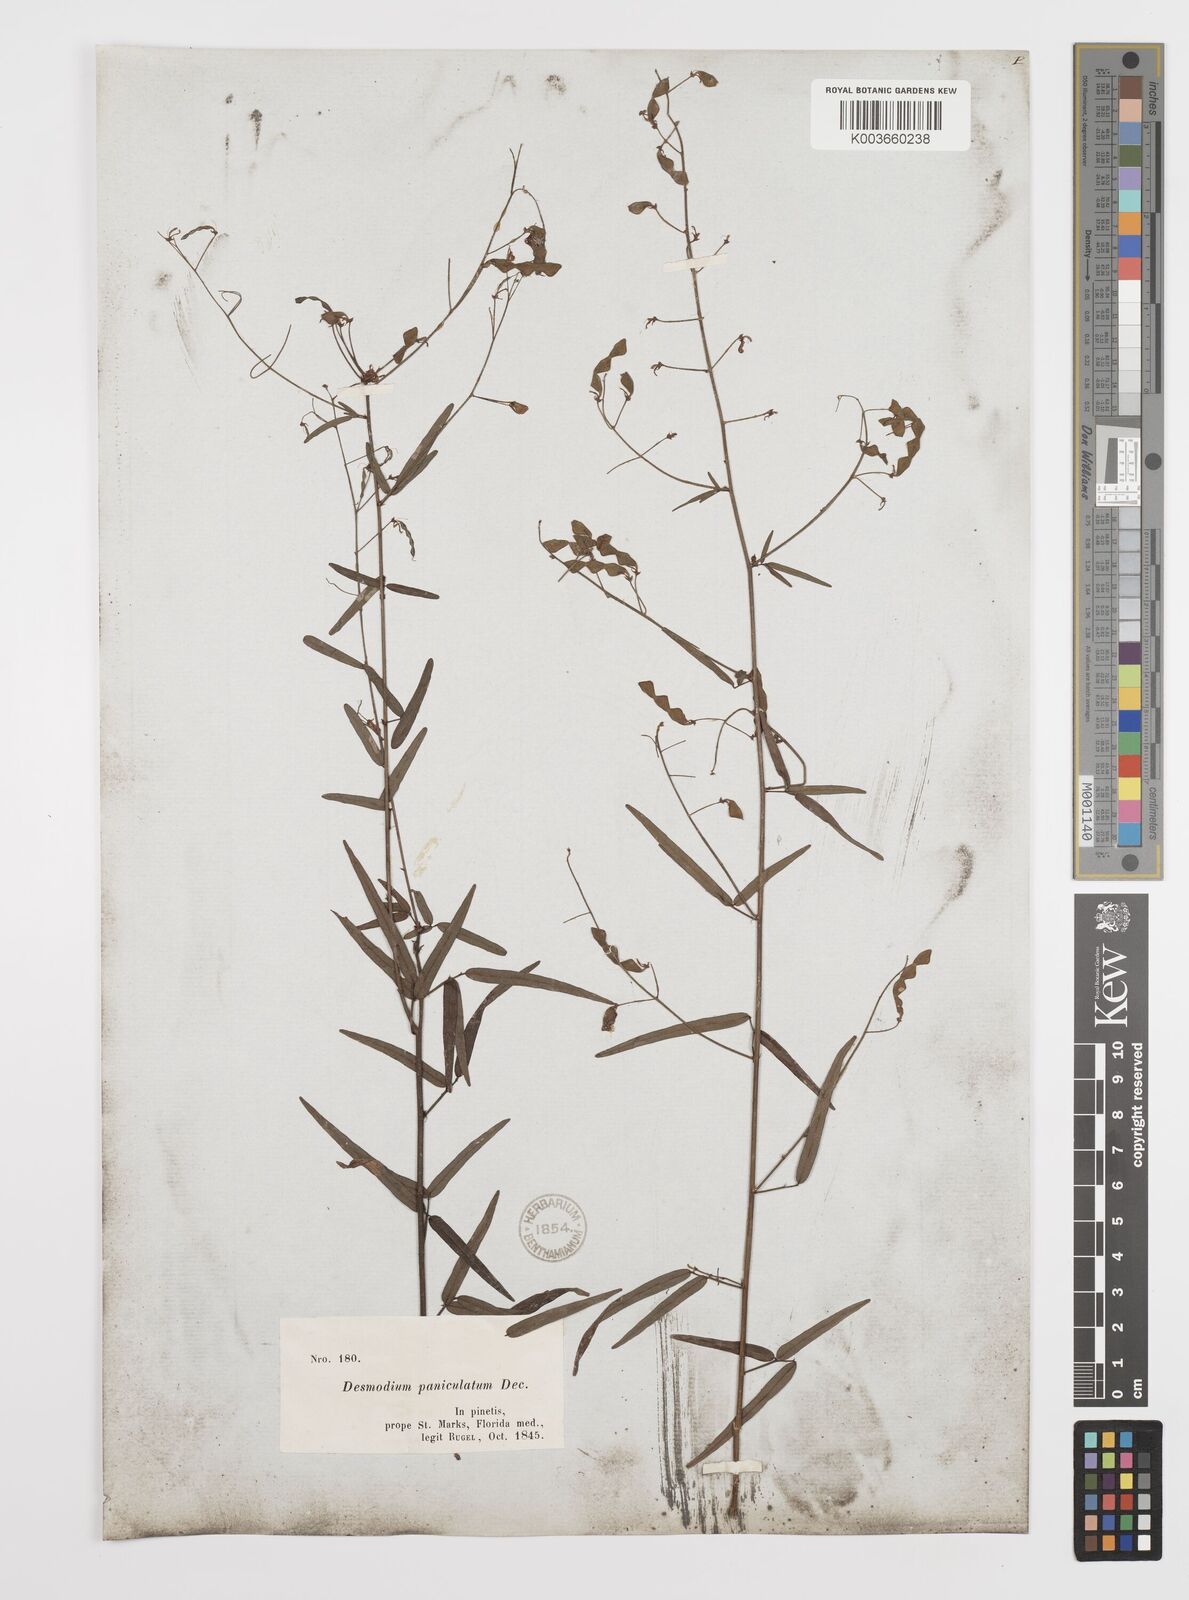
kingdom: Plantae
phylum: Tracheophyta
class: Magnoliopsida
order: Fabales
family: Fabaceae
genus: Desmodium
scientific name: Desmodium paniculatum
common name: Panicled tick-clover
